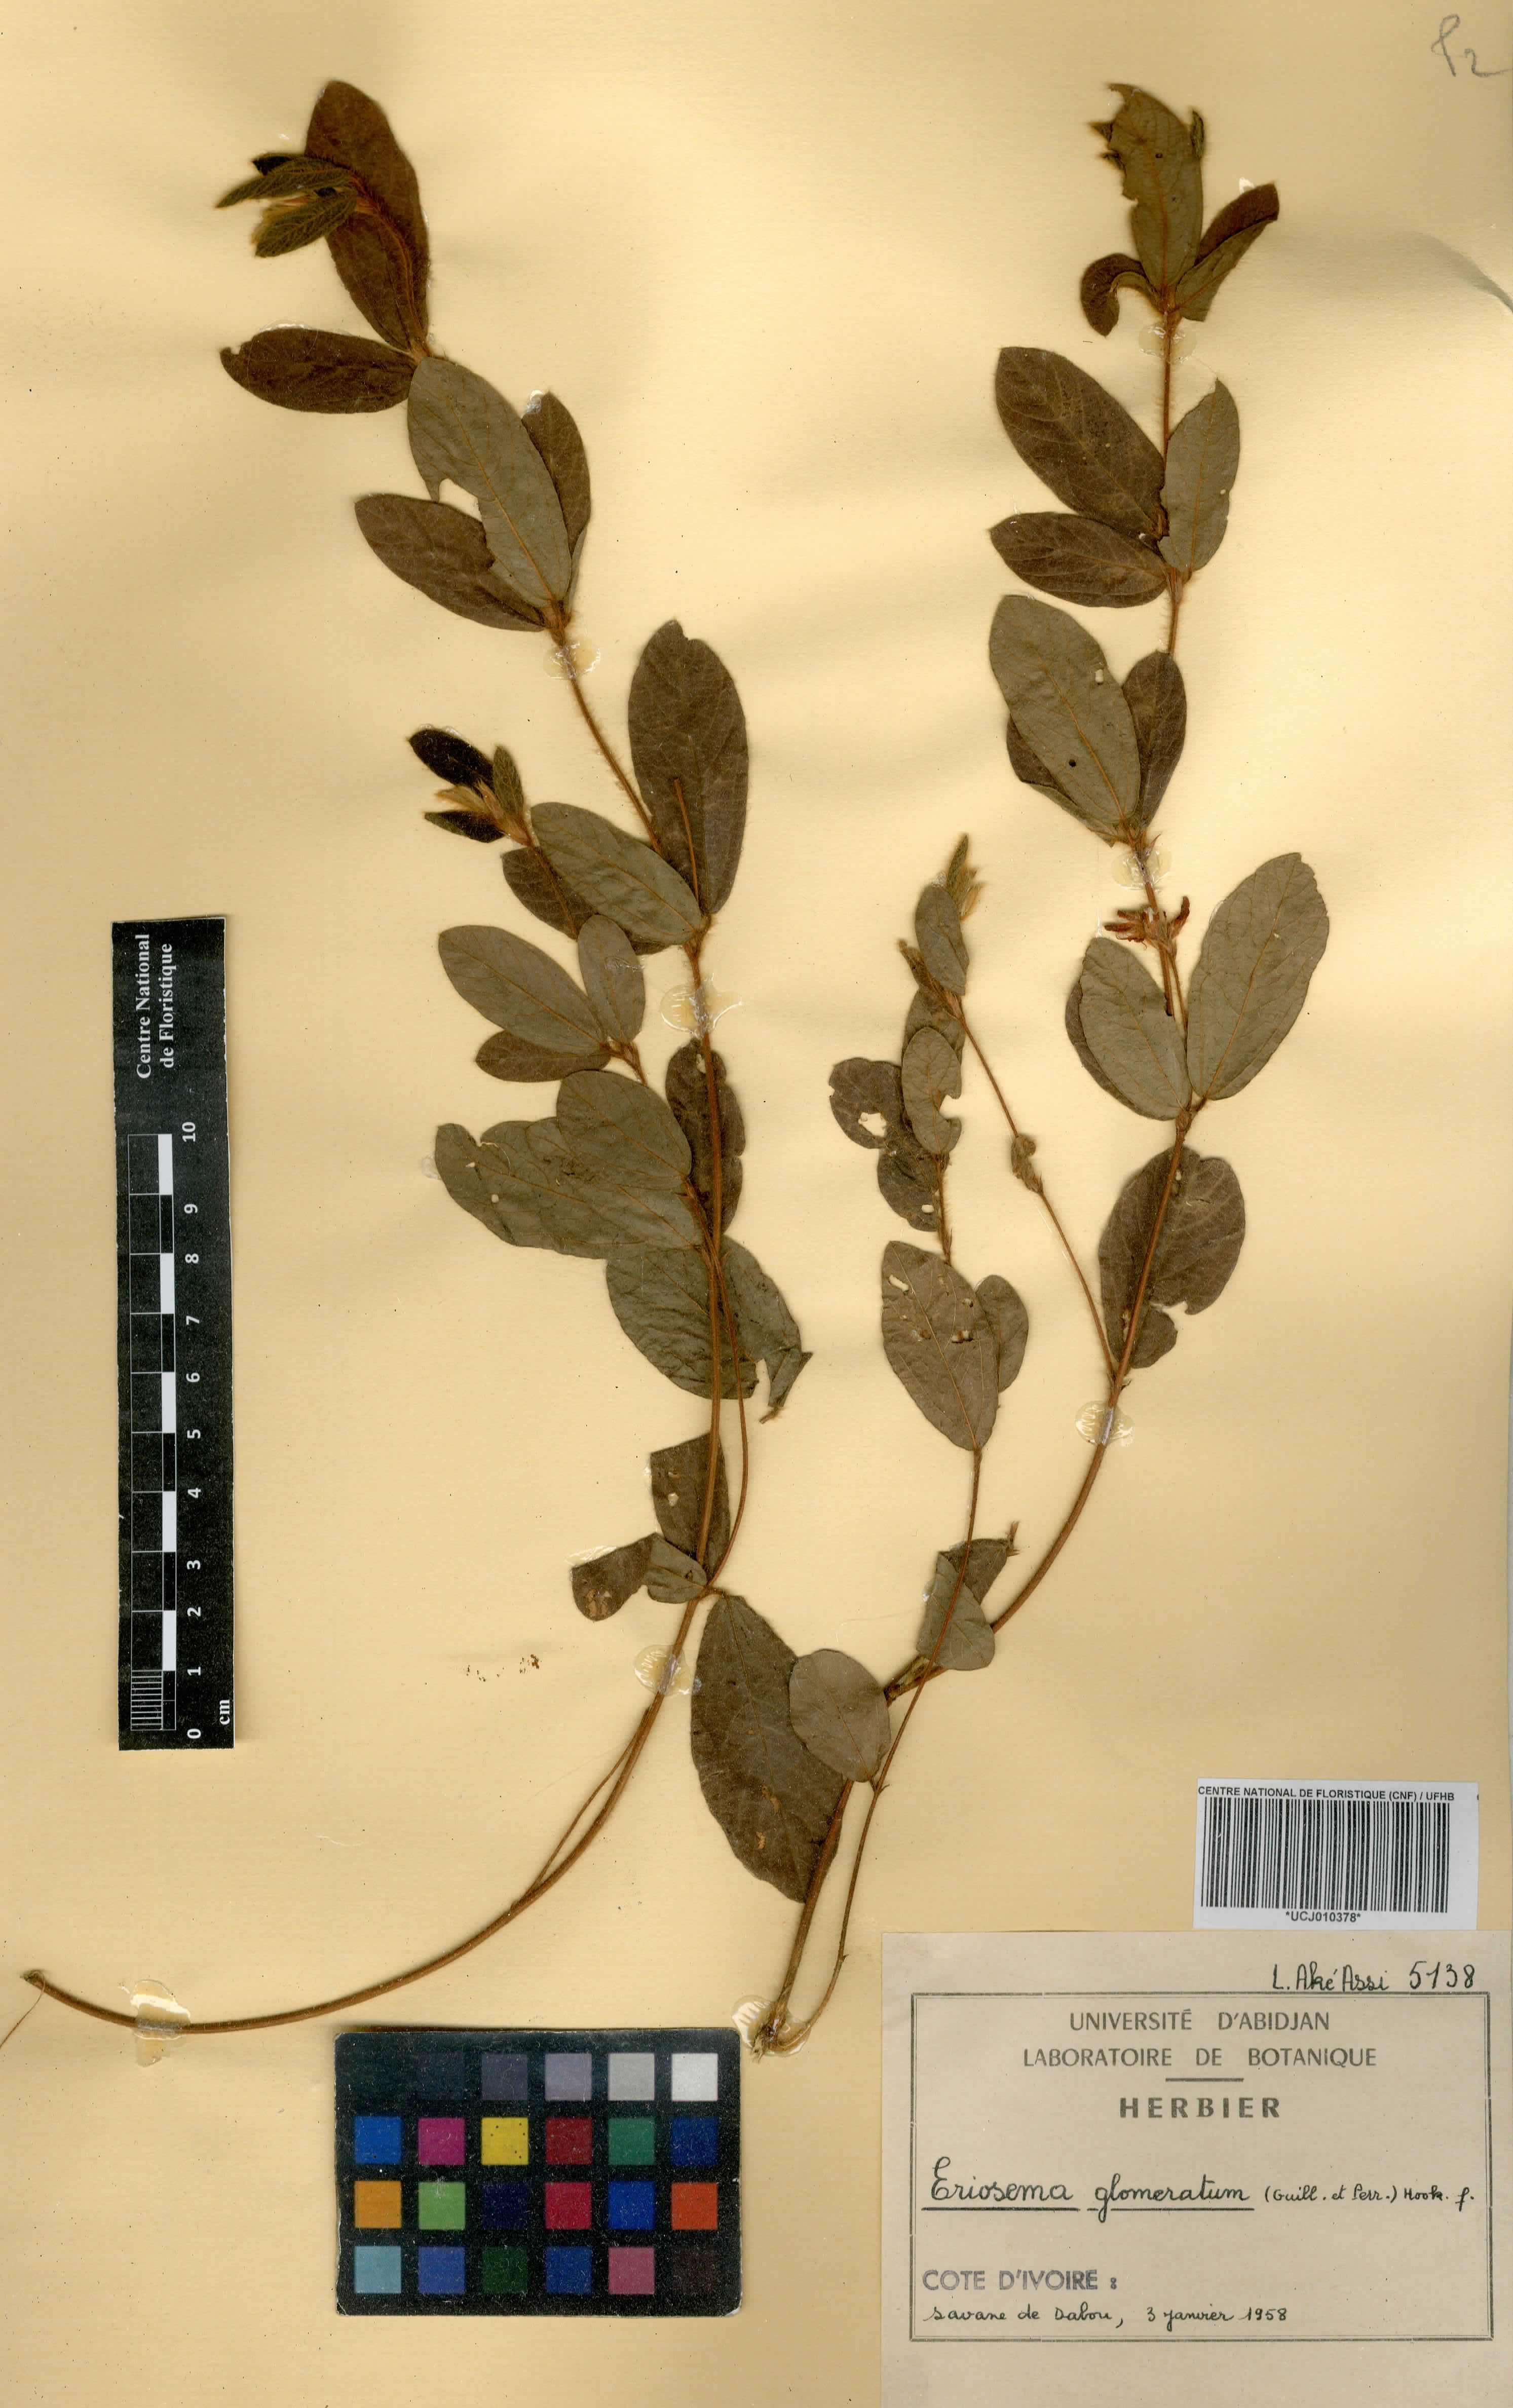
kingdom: Plantae
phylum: Tracheophyta
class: Magnoliopsida
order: Fabales
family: Fabaceae
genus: Eriosema
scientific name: Eriosema glomeratum
